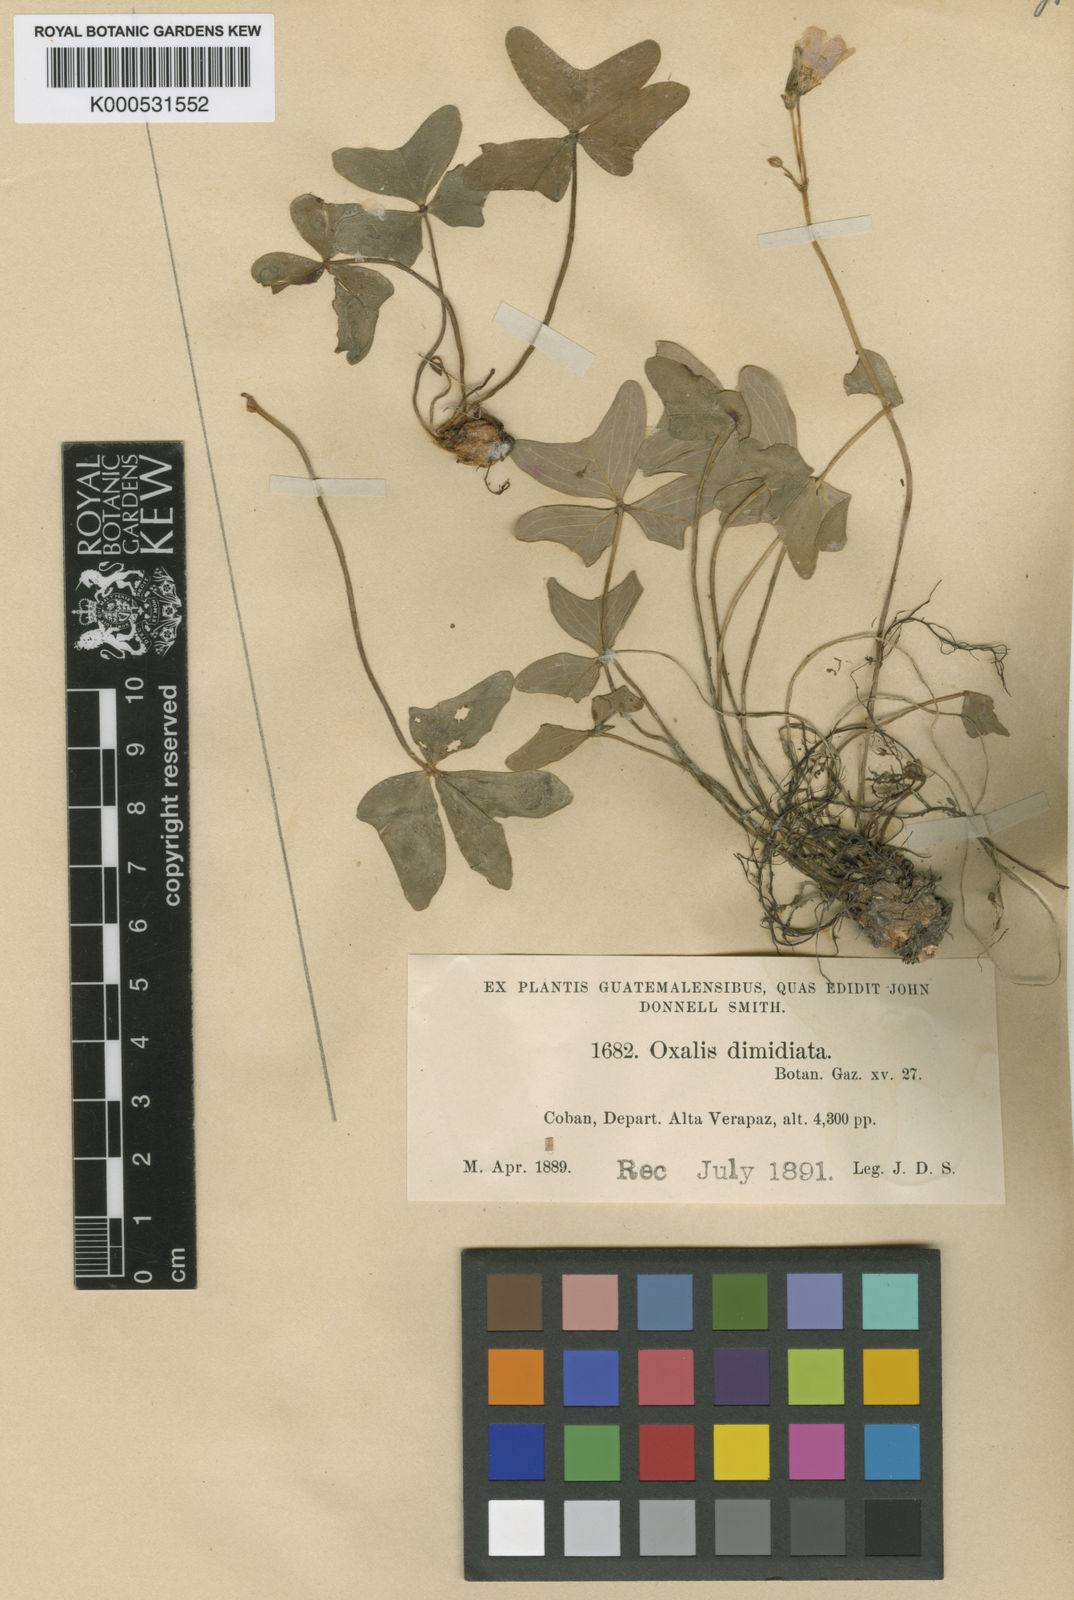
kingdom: Plantae
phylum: Tracheophyta
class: Magnoliopsida
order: Oxalidales
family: Oxalidaceae
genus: Oxalis
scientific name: Oxalis dimidiata
